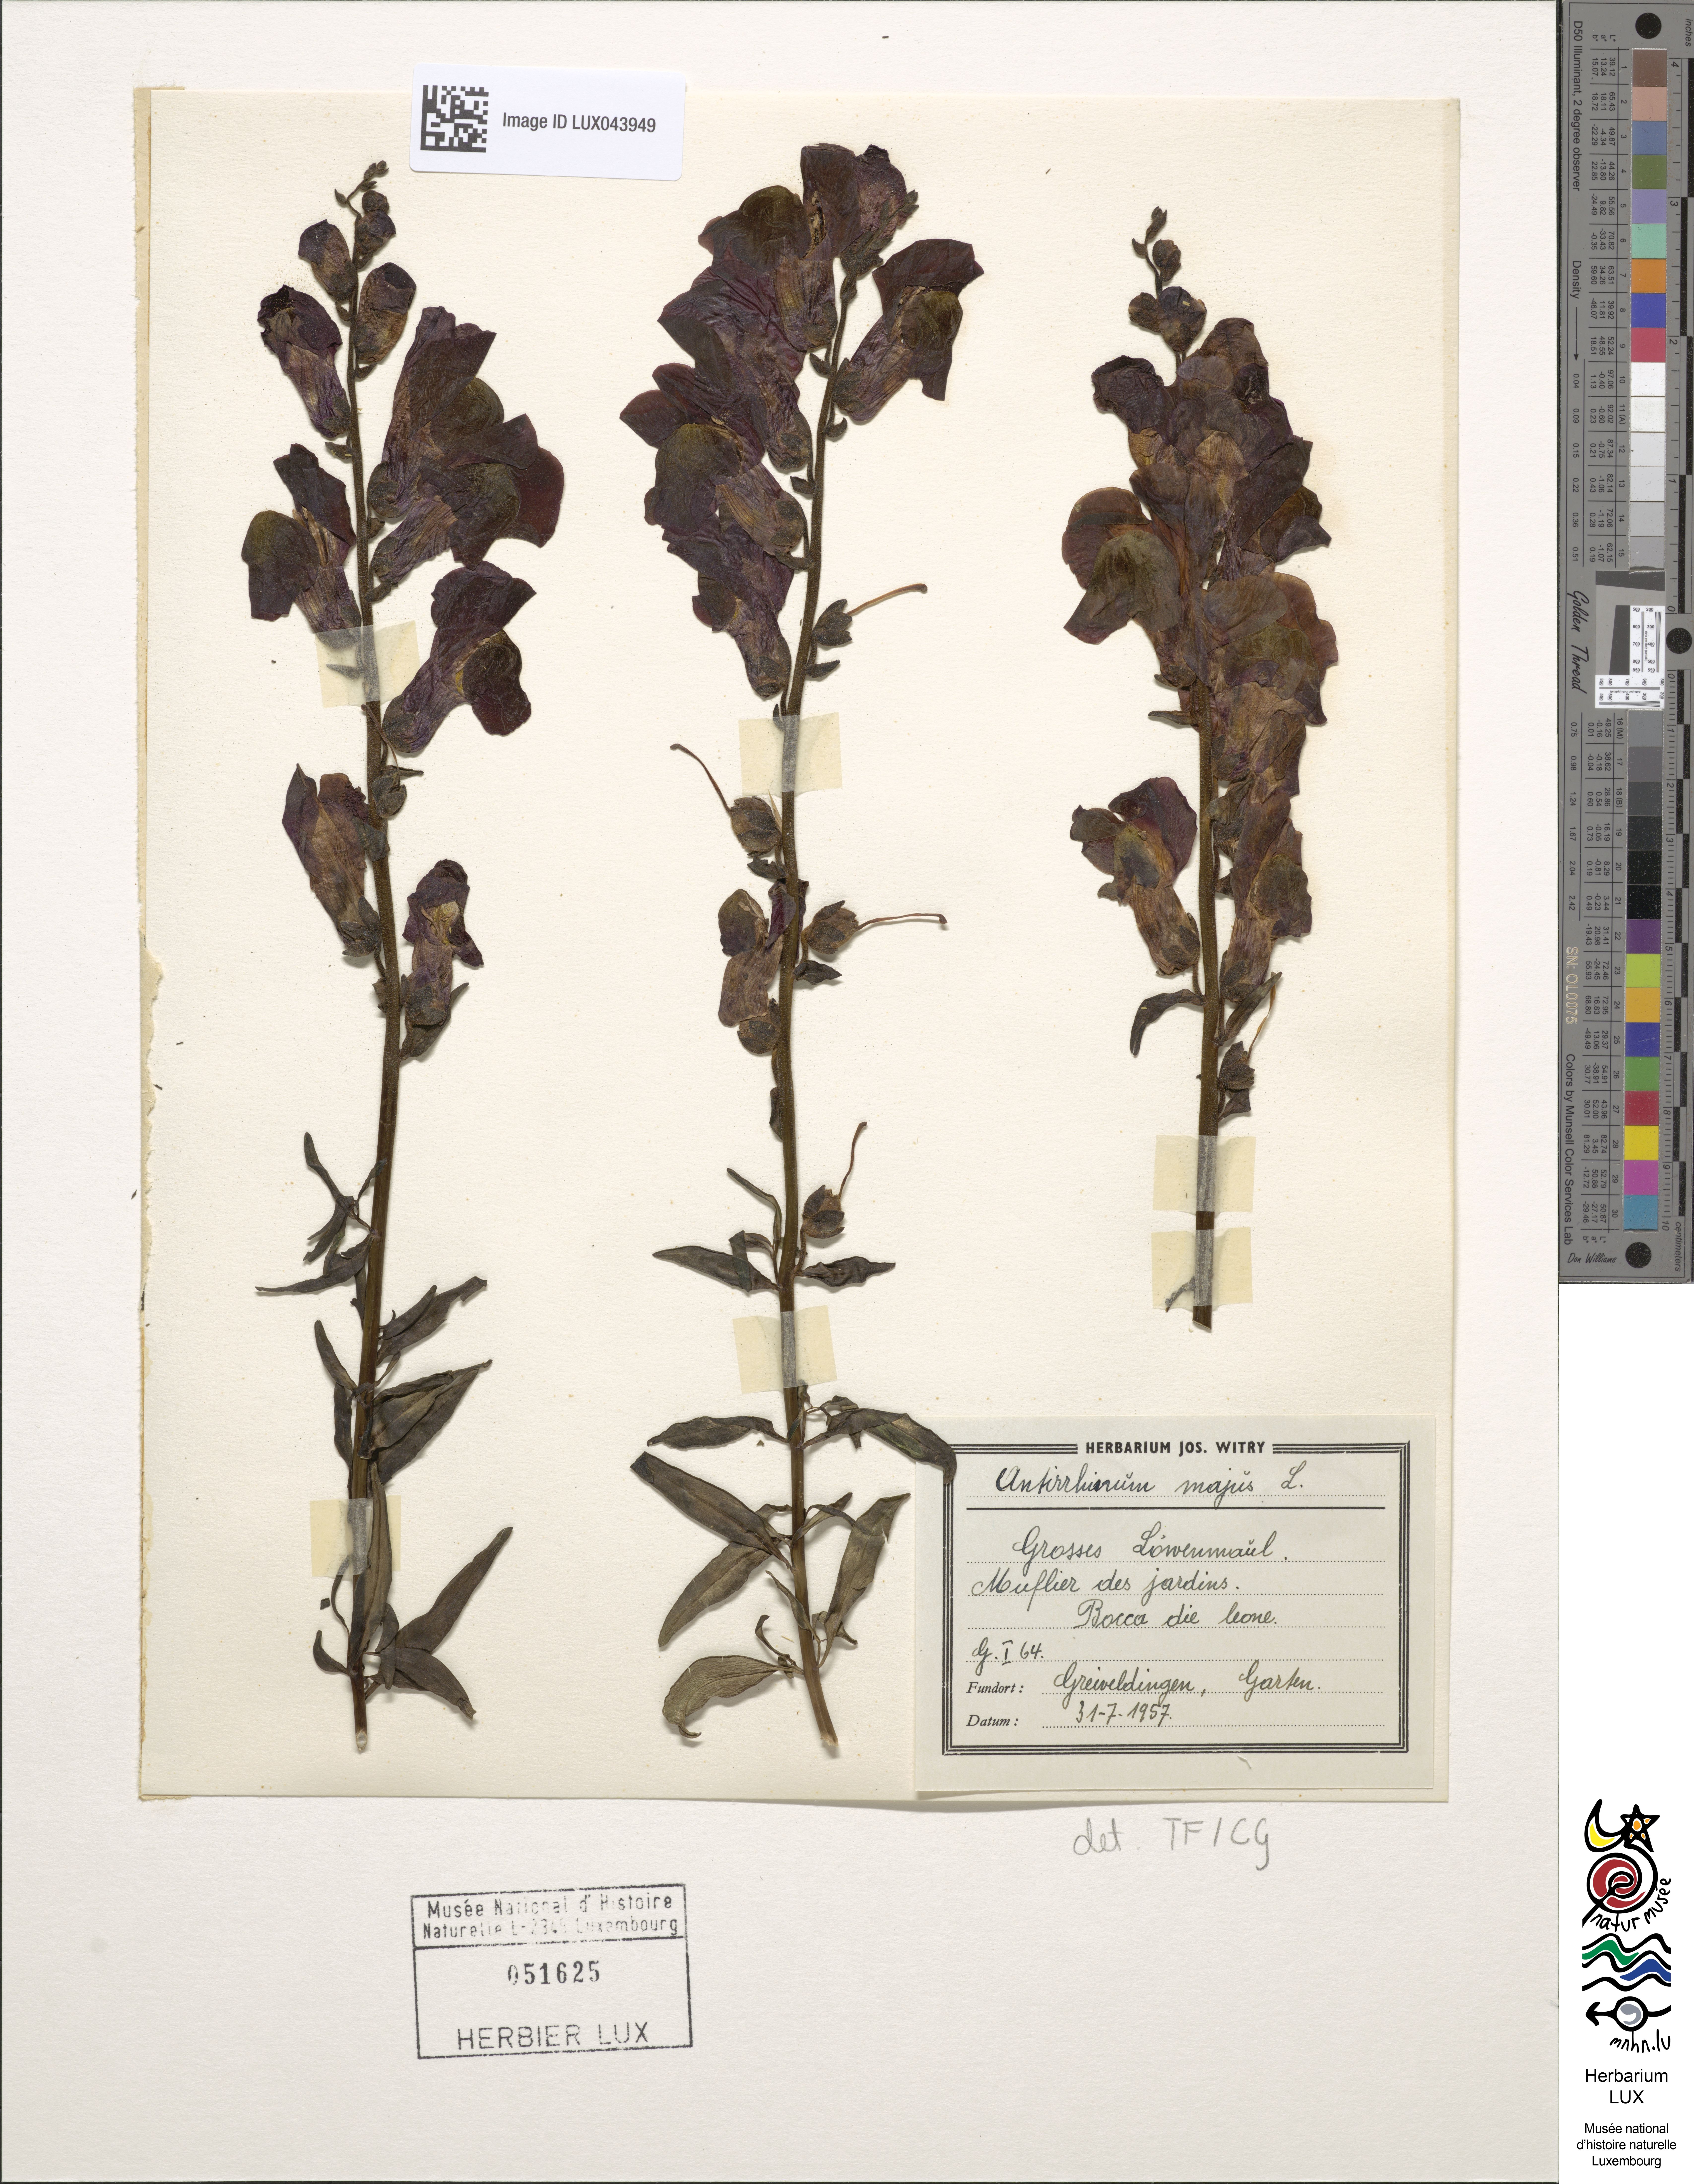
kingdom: Plantae
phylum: Tracheophyta
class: Magnoliopsida
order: Lamiales
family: Plantaginaceae
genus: Antirrhinum
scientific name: Antirrhinum majus
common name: Snapdragon
